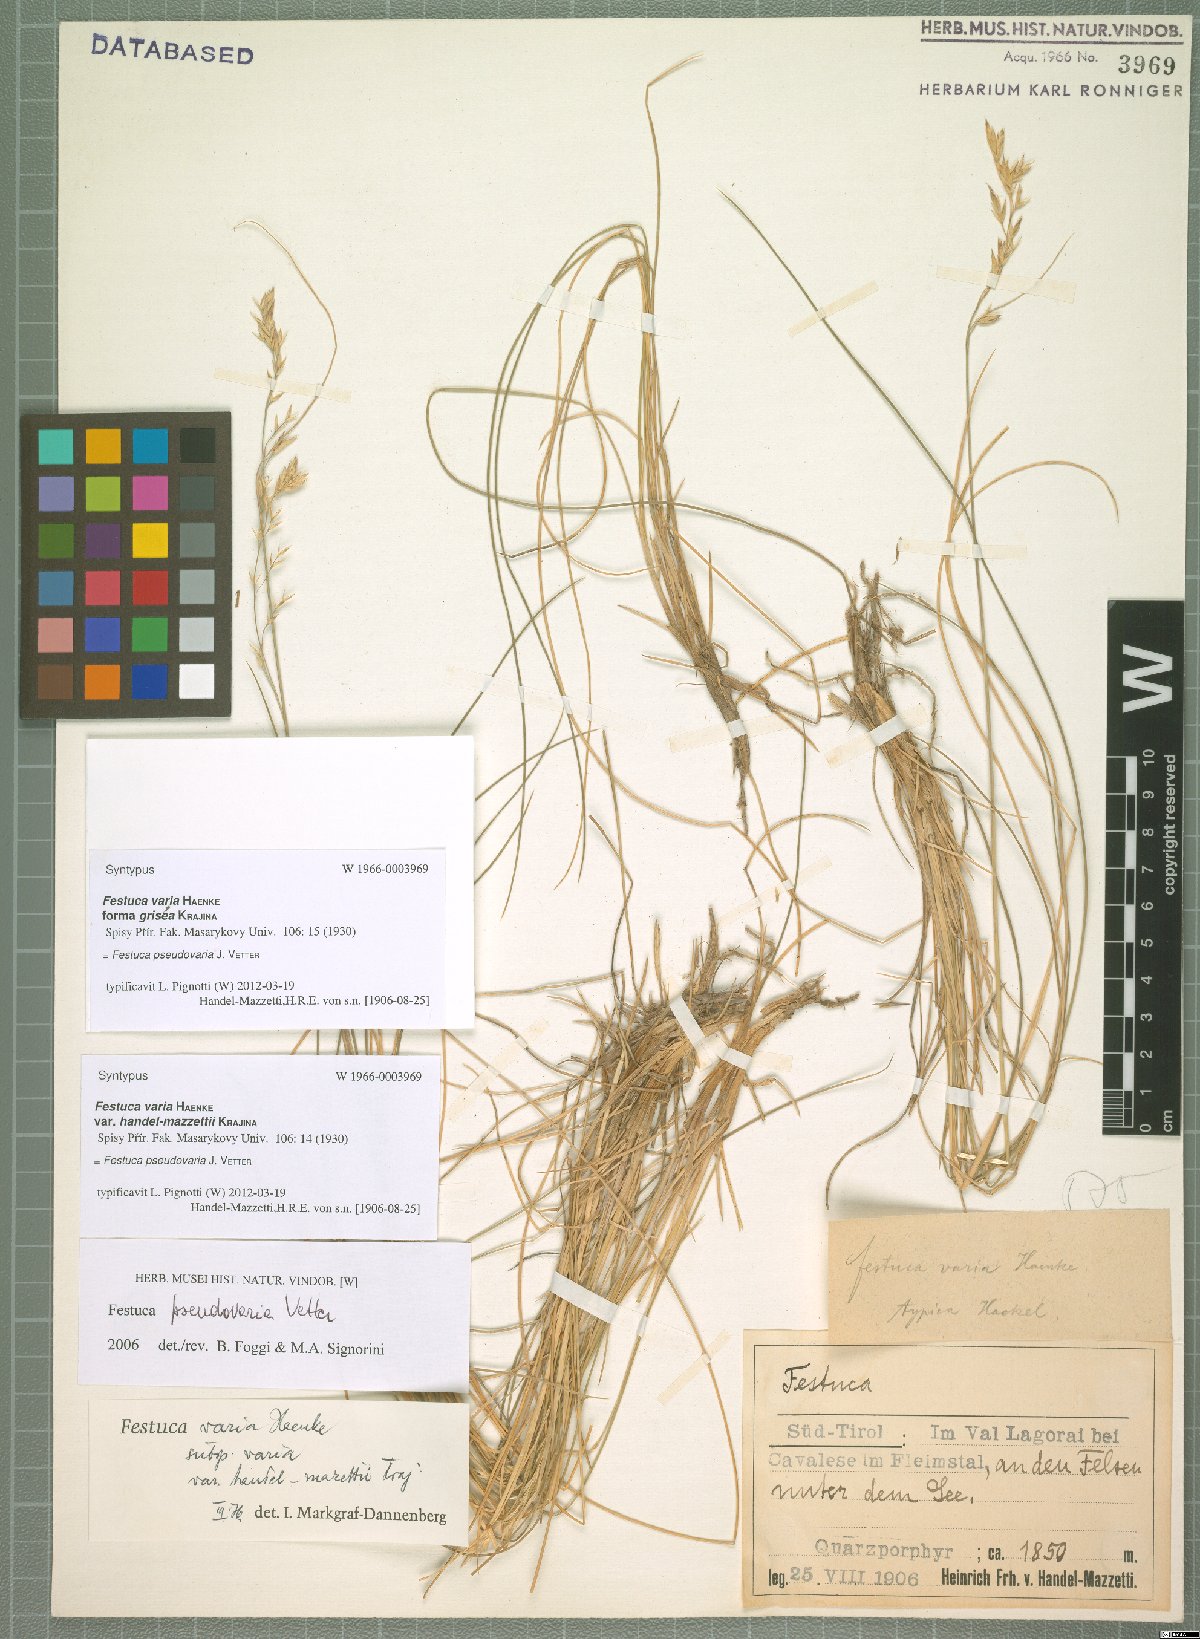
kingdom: Plantae
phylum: Tracheophyta
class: Liliopsida
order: Poales
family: Poaceae
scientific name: Poaceae
